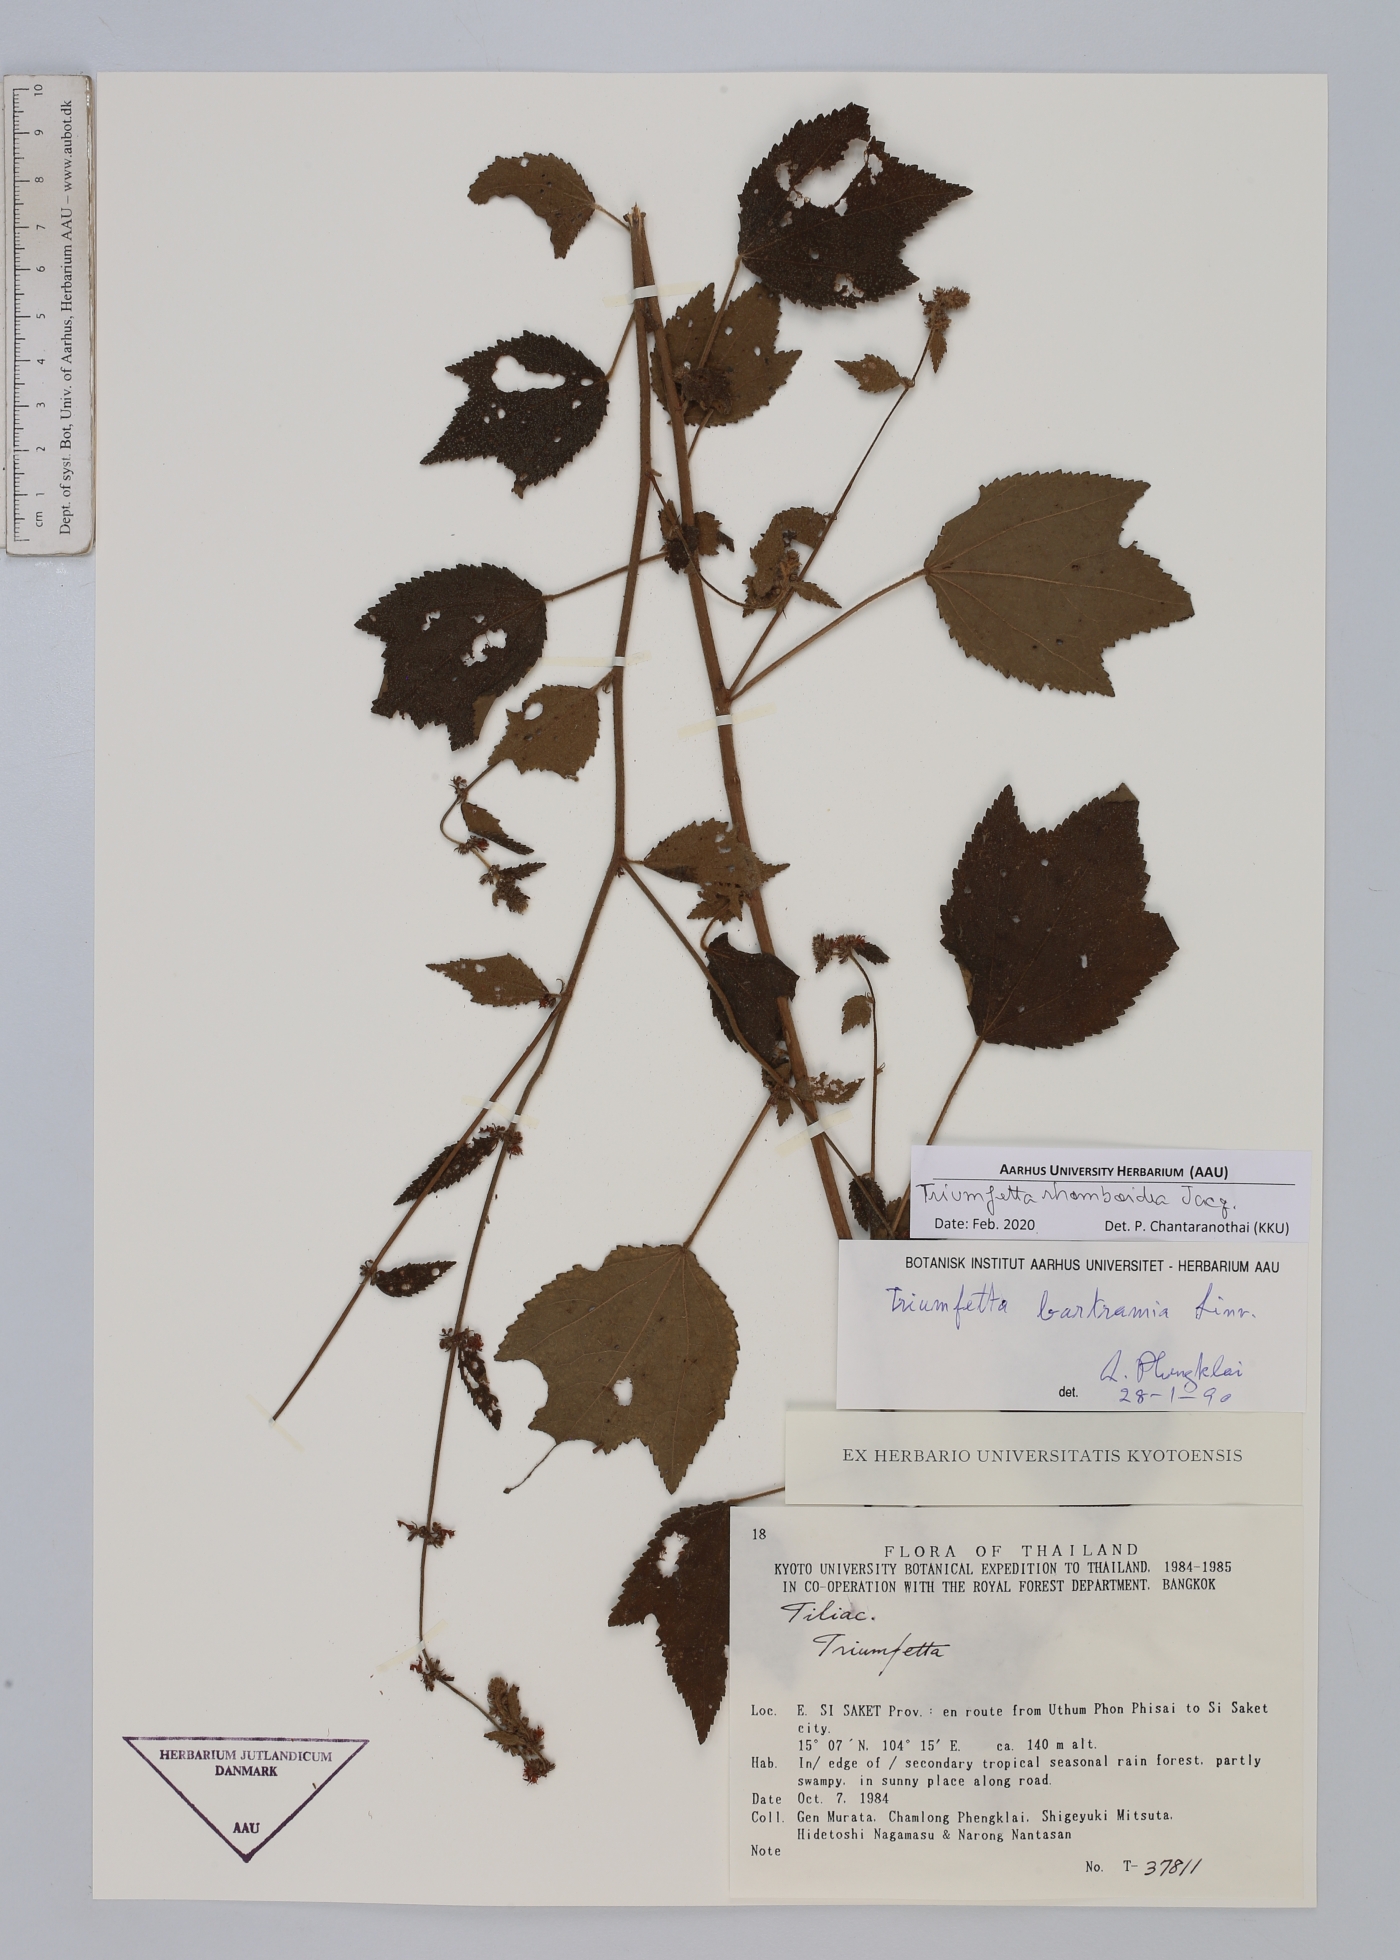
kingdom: Plantae
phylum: Tracheophyta
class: Magnoliopsida
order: Malvales
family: Malvaceae
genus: Triumfetta
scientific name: Triumfetta rhomboidea
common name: Diamond burbark
